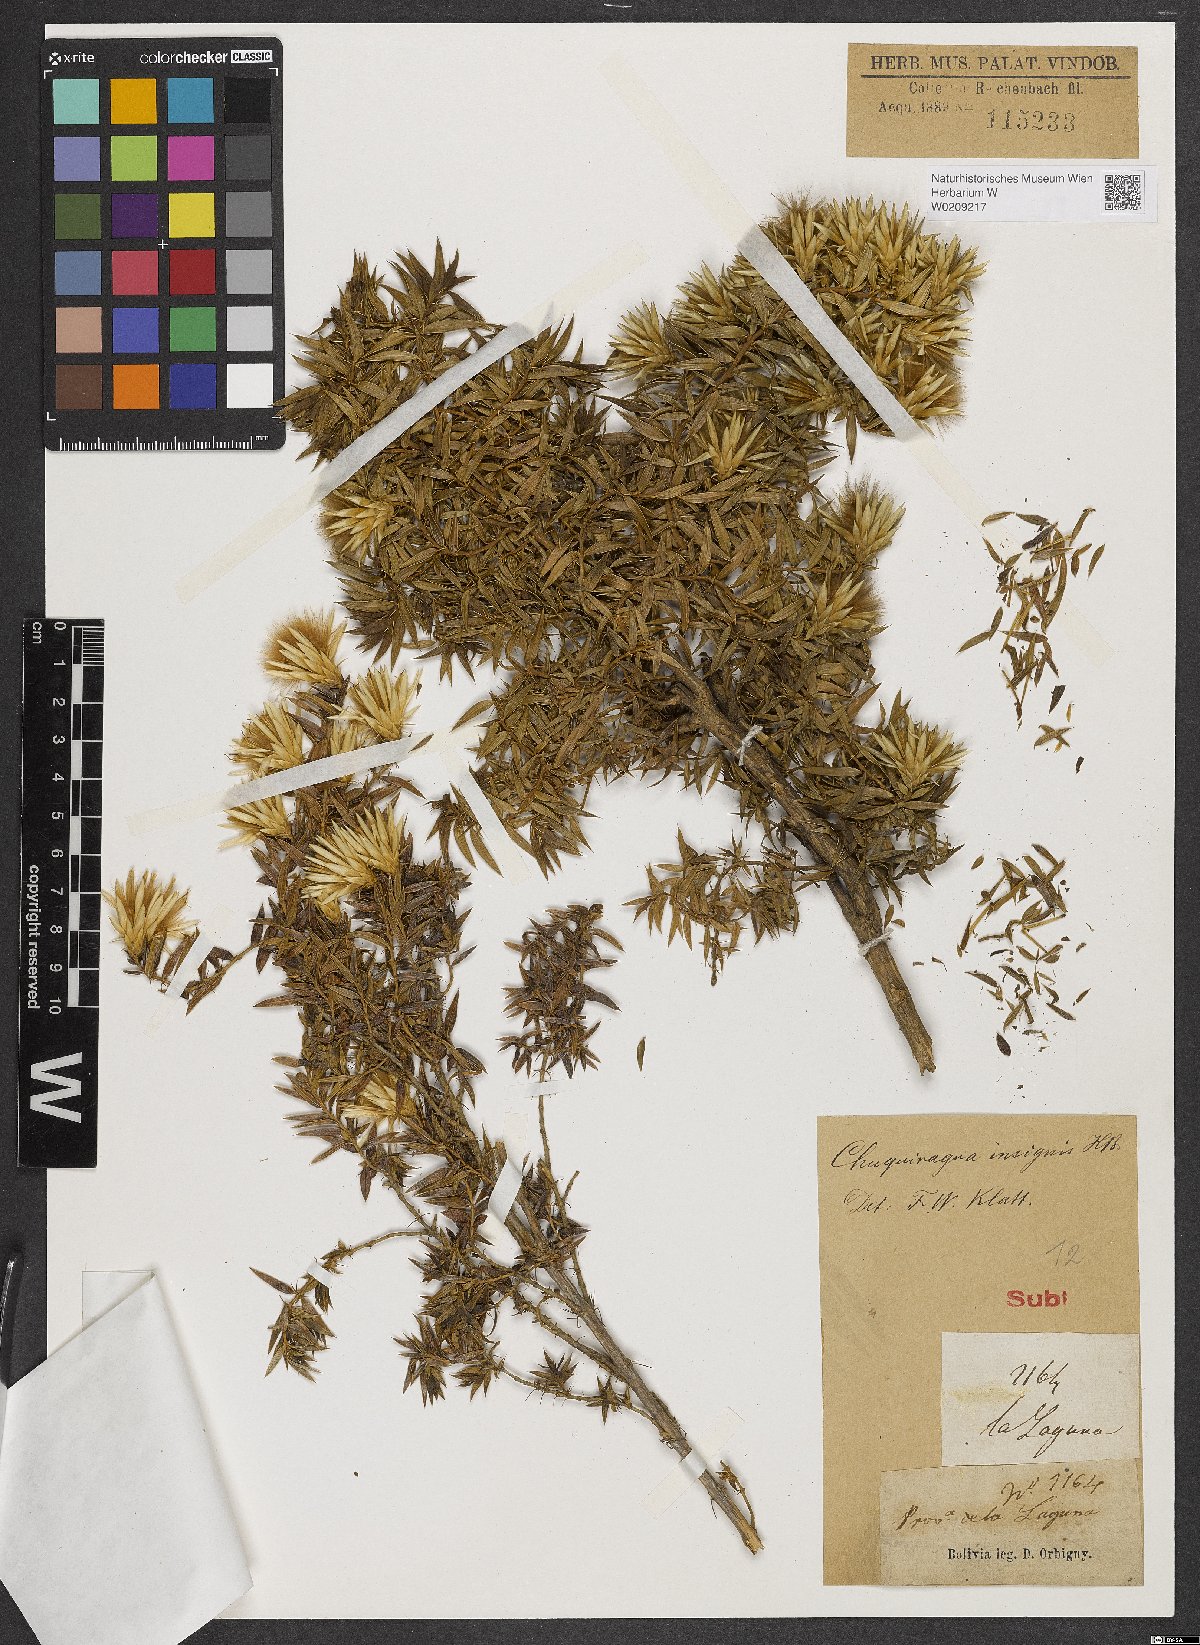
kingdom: Plantae
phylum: Tracheophyta
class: Magnoliopsida
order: Asterales
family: Asteraceae
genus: Chuquiraga
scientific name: Chuquiraga jussieui
